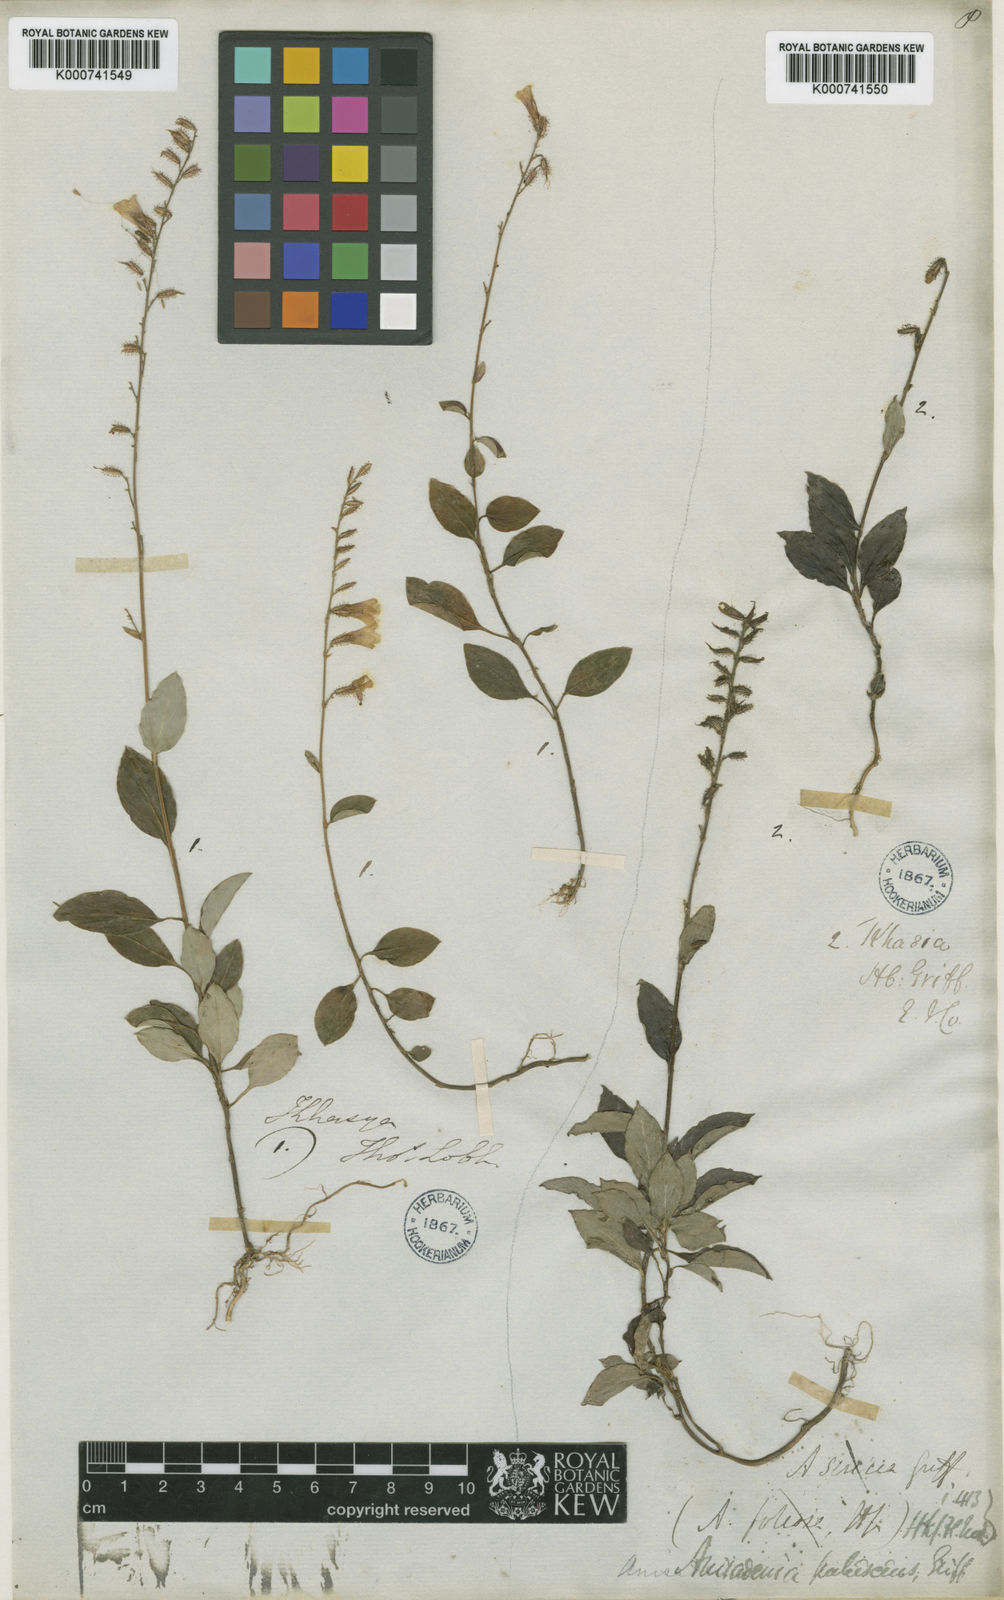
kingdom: Plantae
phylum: Tracheophyta
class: Magnoliopsida
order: Malpighiales
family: Linaceae
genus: Anisadenia
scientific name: Anisadenia pubescens
